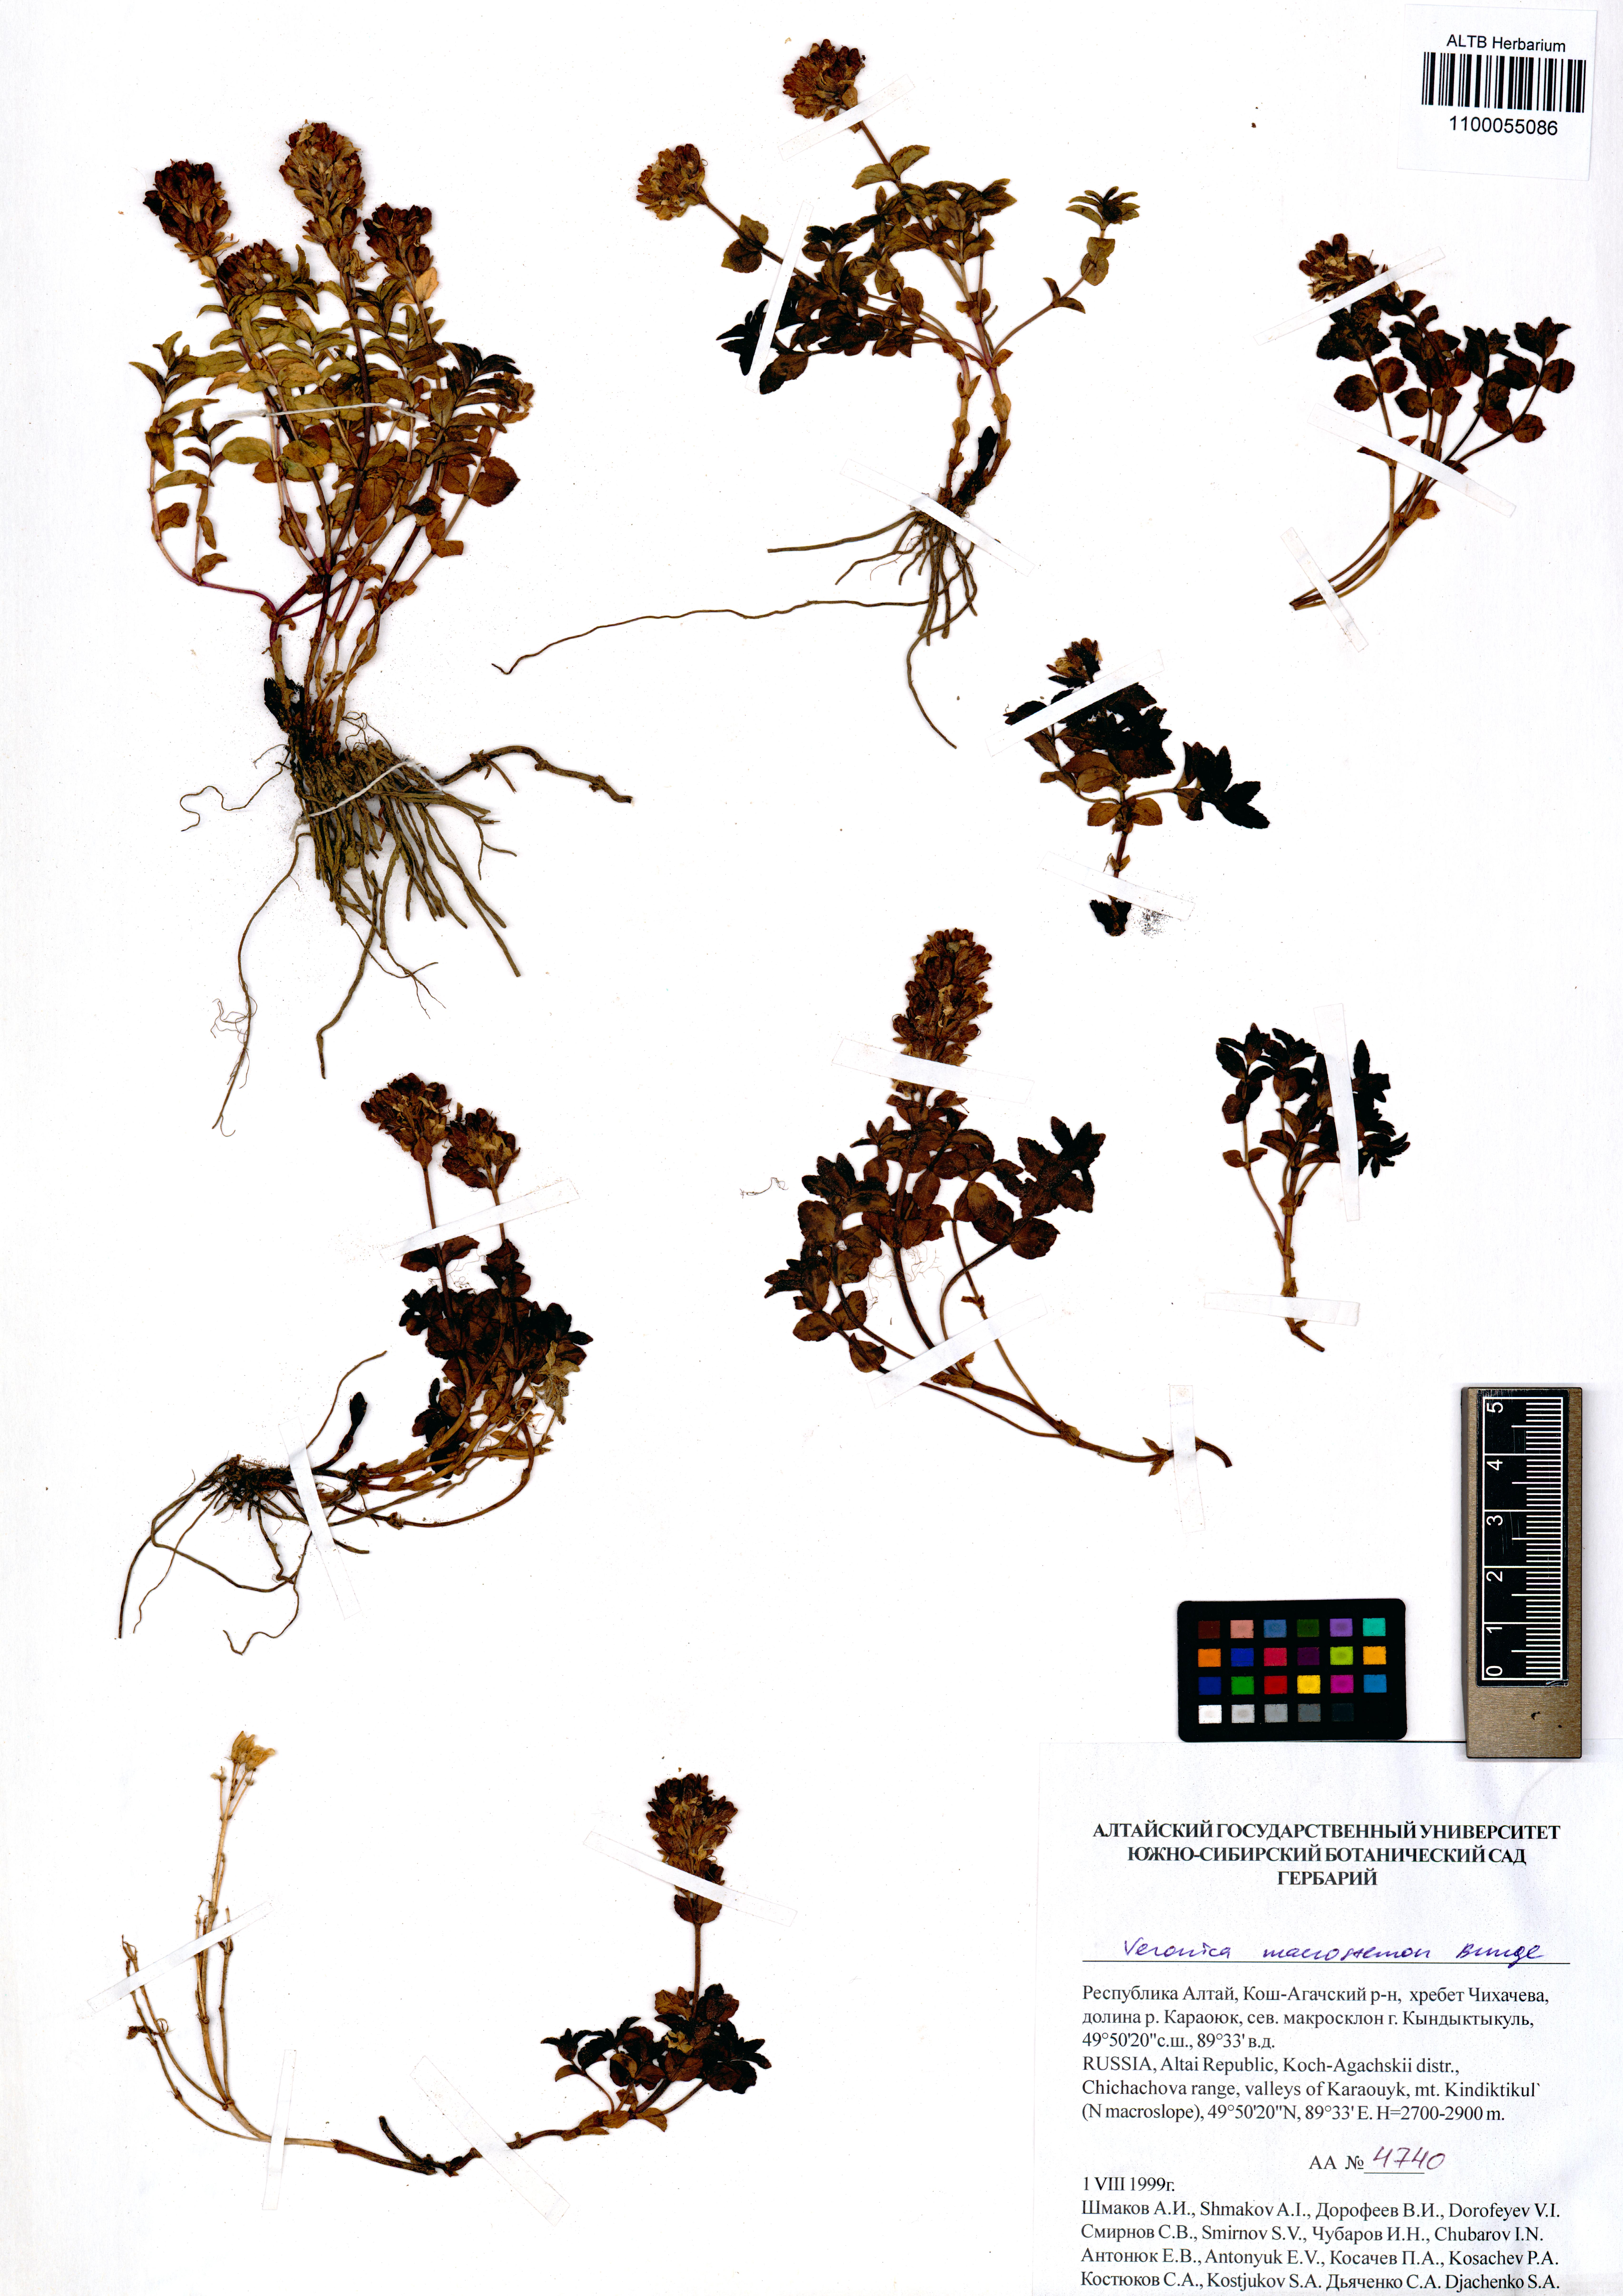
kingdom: Plantae
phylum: Tracheophyta
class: Magnoliopsida
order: Lamiales
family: Plantaginaceae
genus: Veronica
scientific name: Veronica macrostemon
